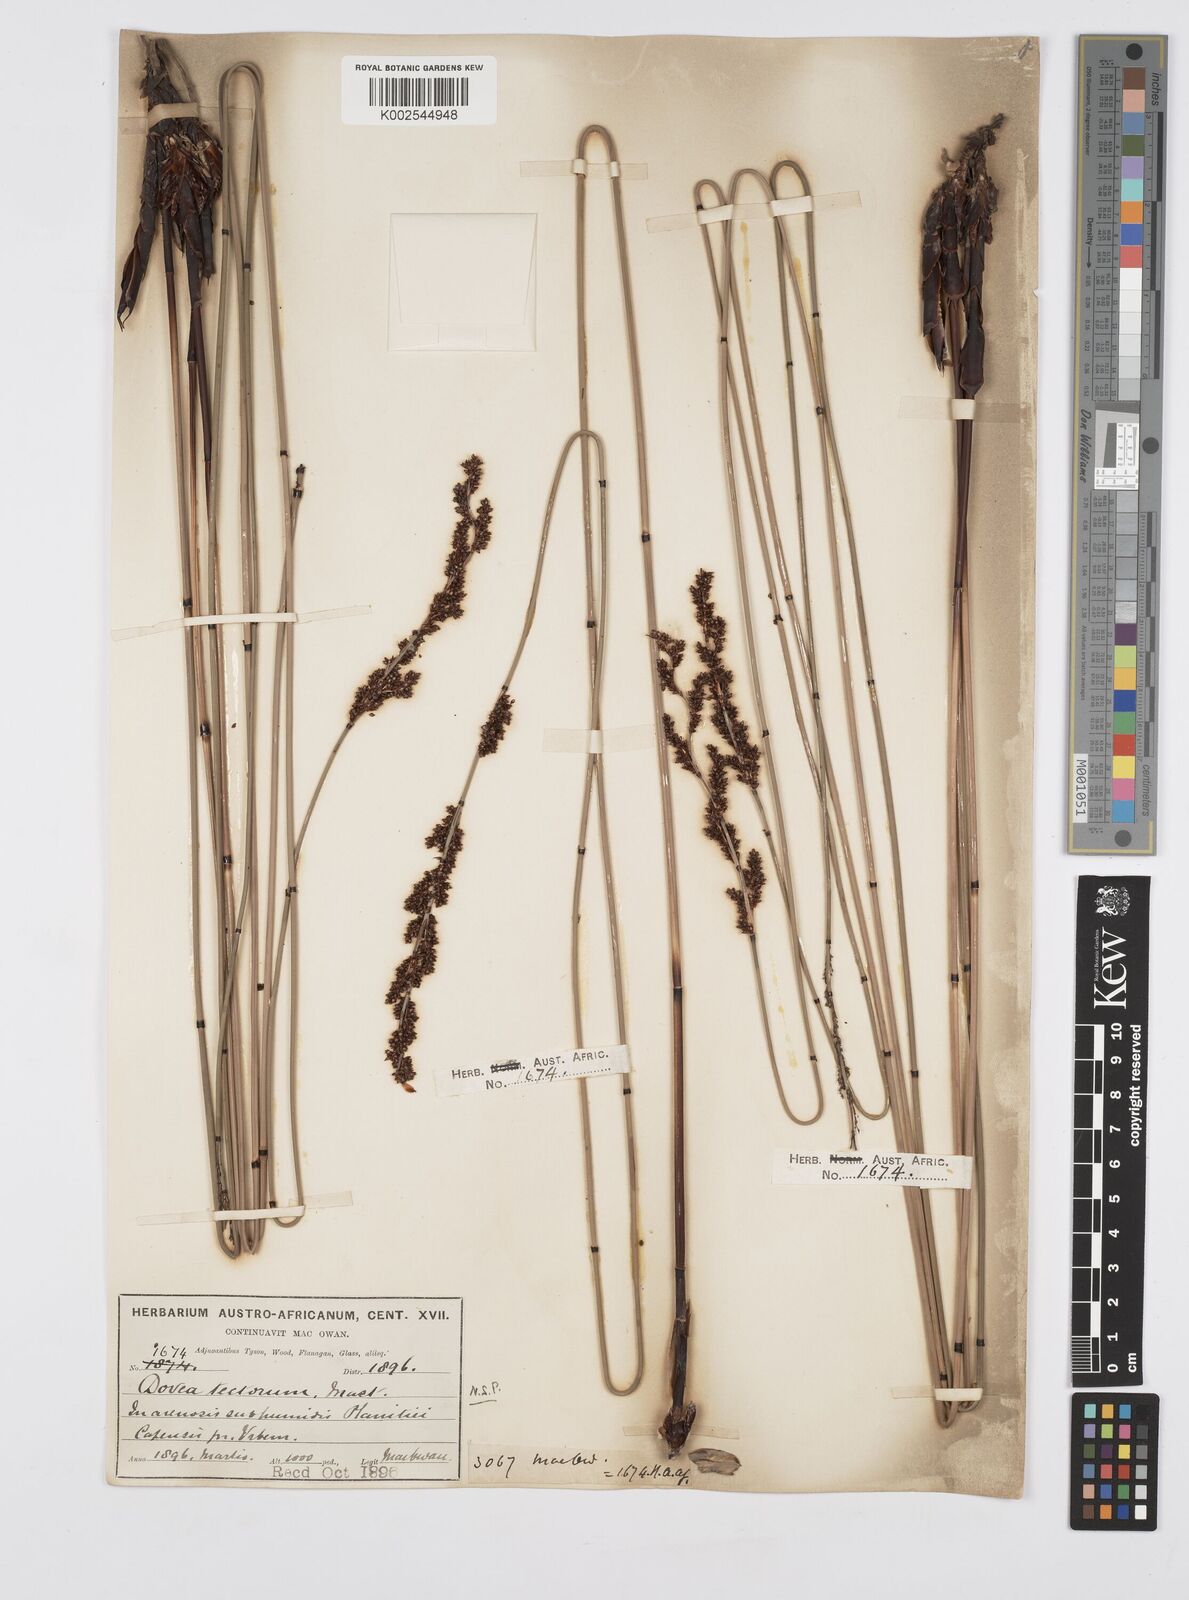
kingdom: Plantae
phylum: Tracheophyta
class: Liliopsida
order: Poales
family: Restionaceae
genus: Elegia
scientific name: Elegia tectorum
